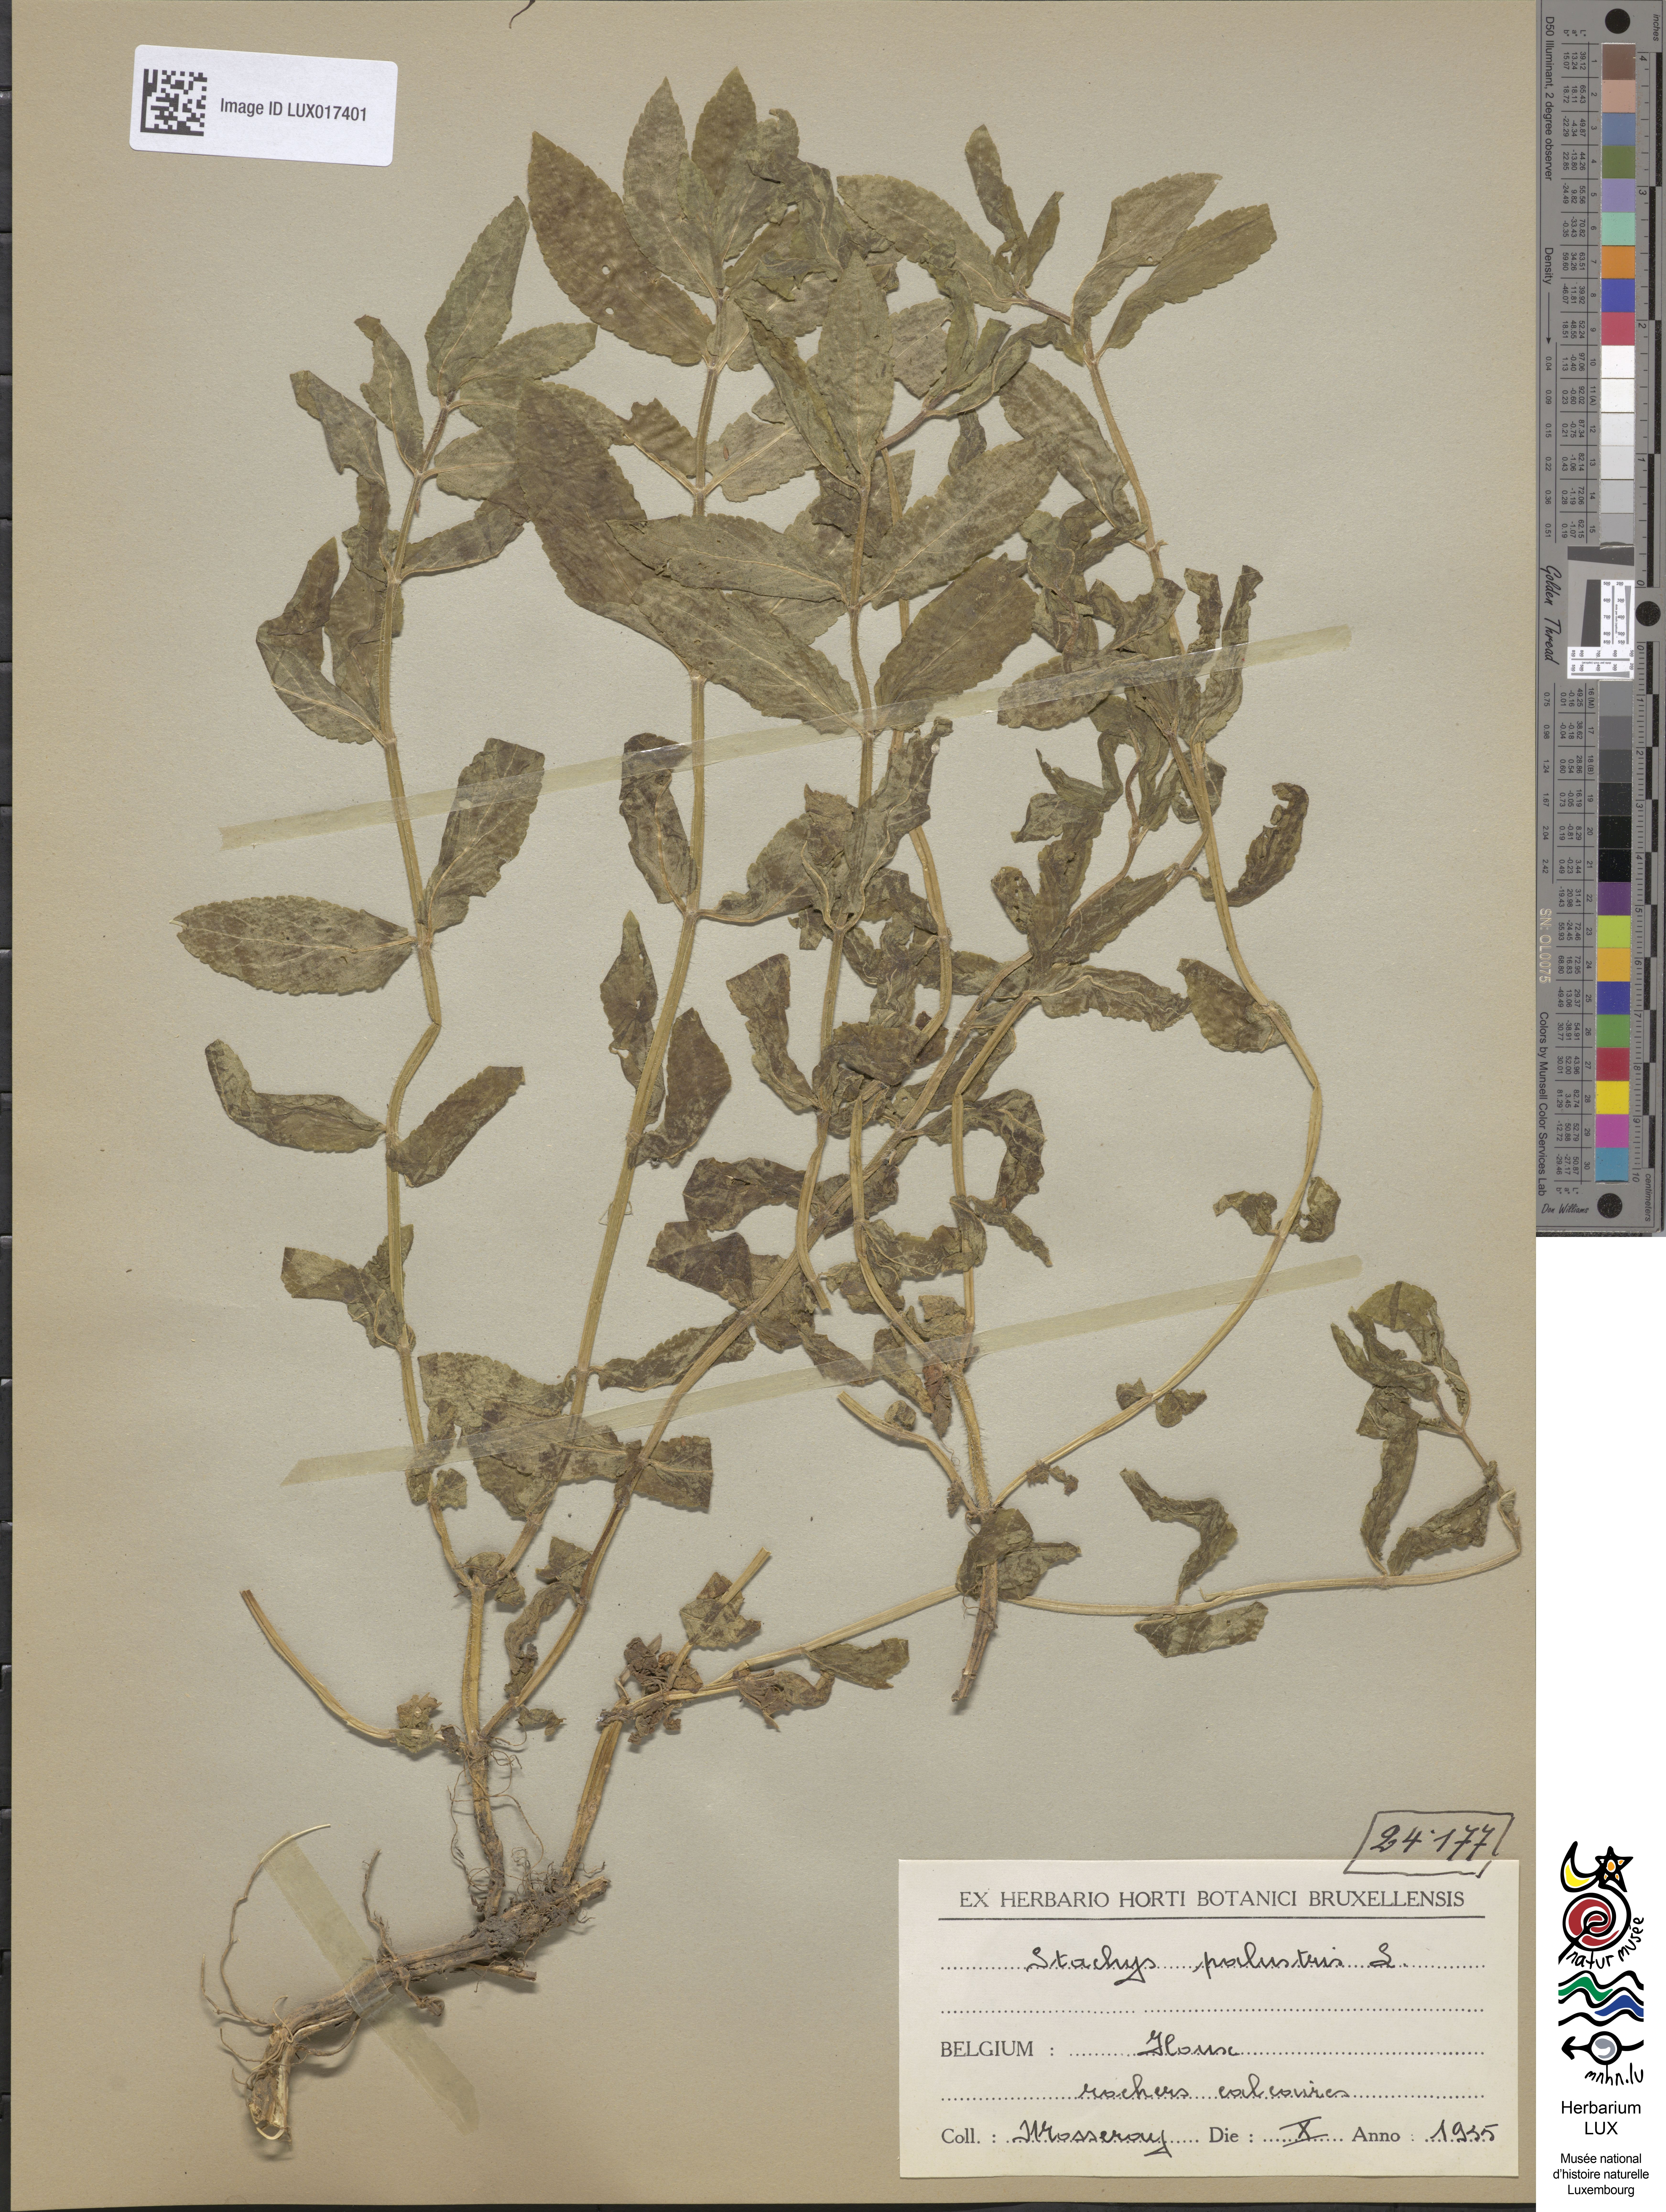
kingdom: Plantae
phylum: Tracheophyta
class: Magnoliopsida
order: Lamiales
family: Lamiaceae
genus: Stachys
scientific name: Stachys palustris
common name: Marsh woundwort
